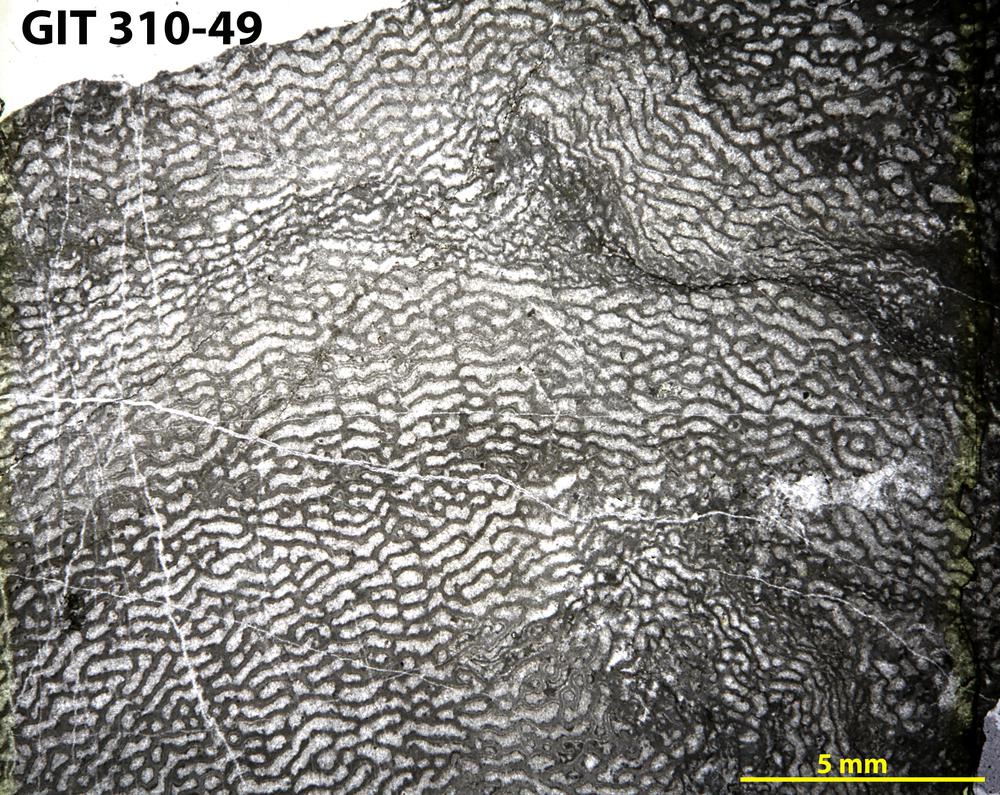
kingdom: Animalia
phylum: Porifera
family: Actinodictyidae
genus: Camptodictyon
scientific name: Camptodictyon
